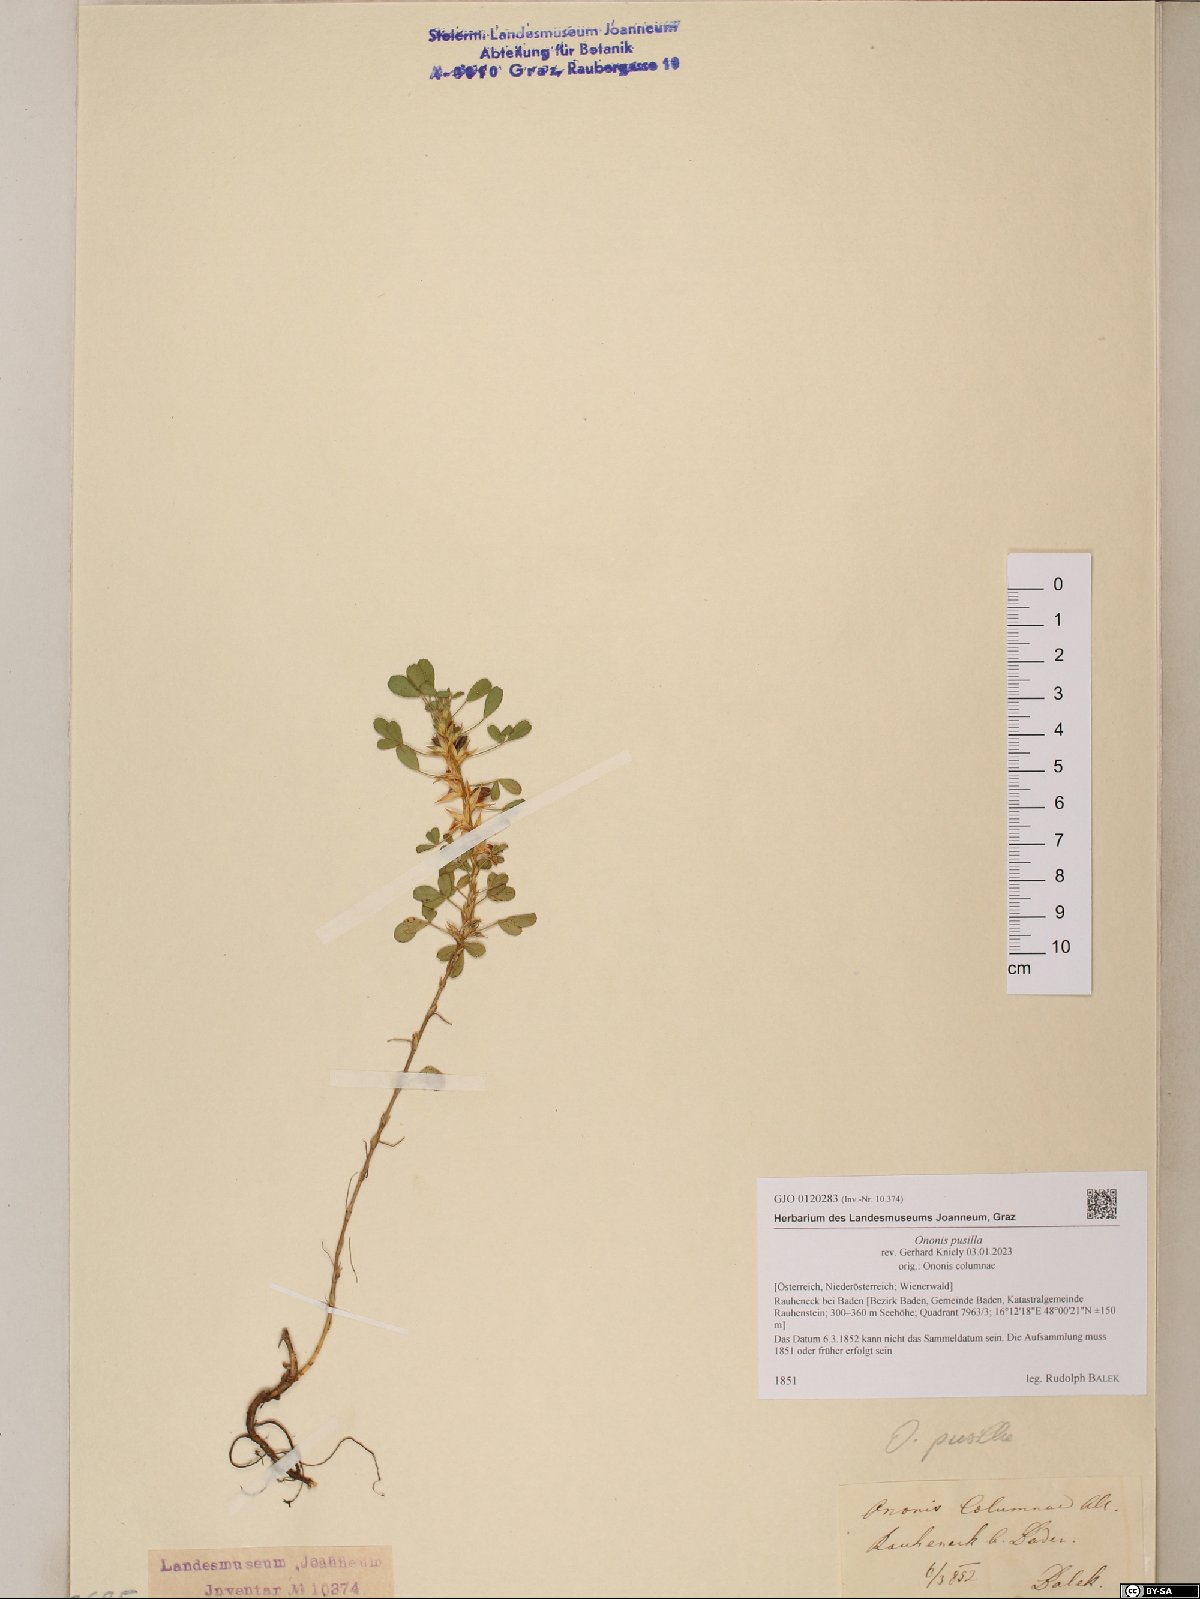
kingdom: Plantae
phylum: Tracheophyta
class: Magnoliopsida
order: Fabales
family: Fabaceae
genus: Ononis
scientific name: Ononis pusilla
